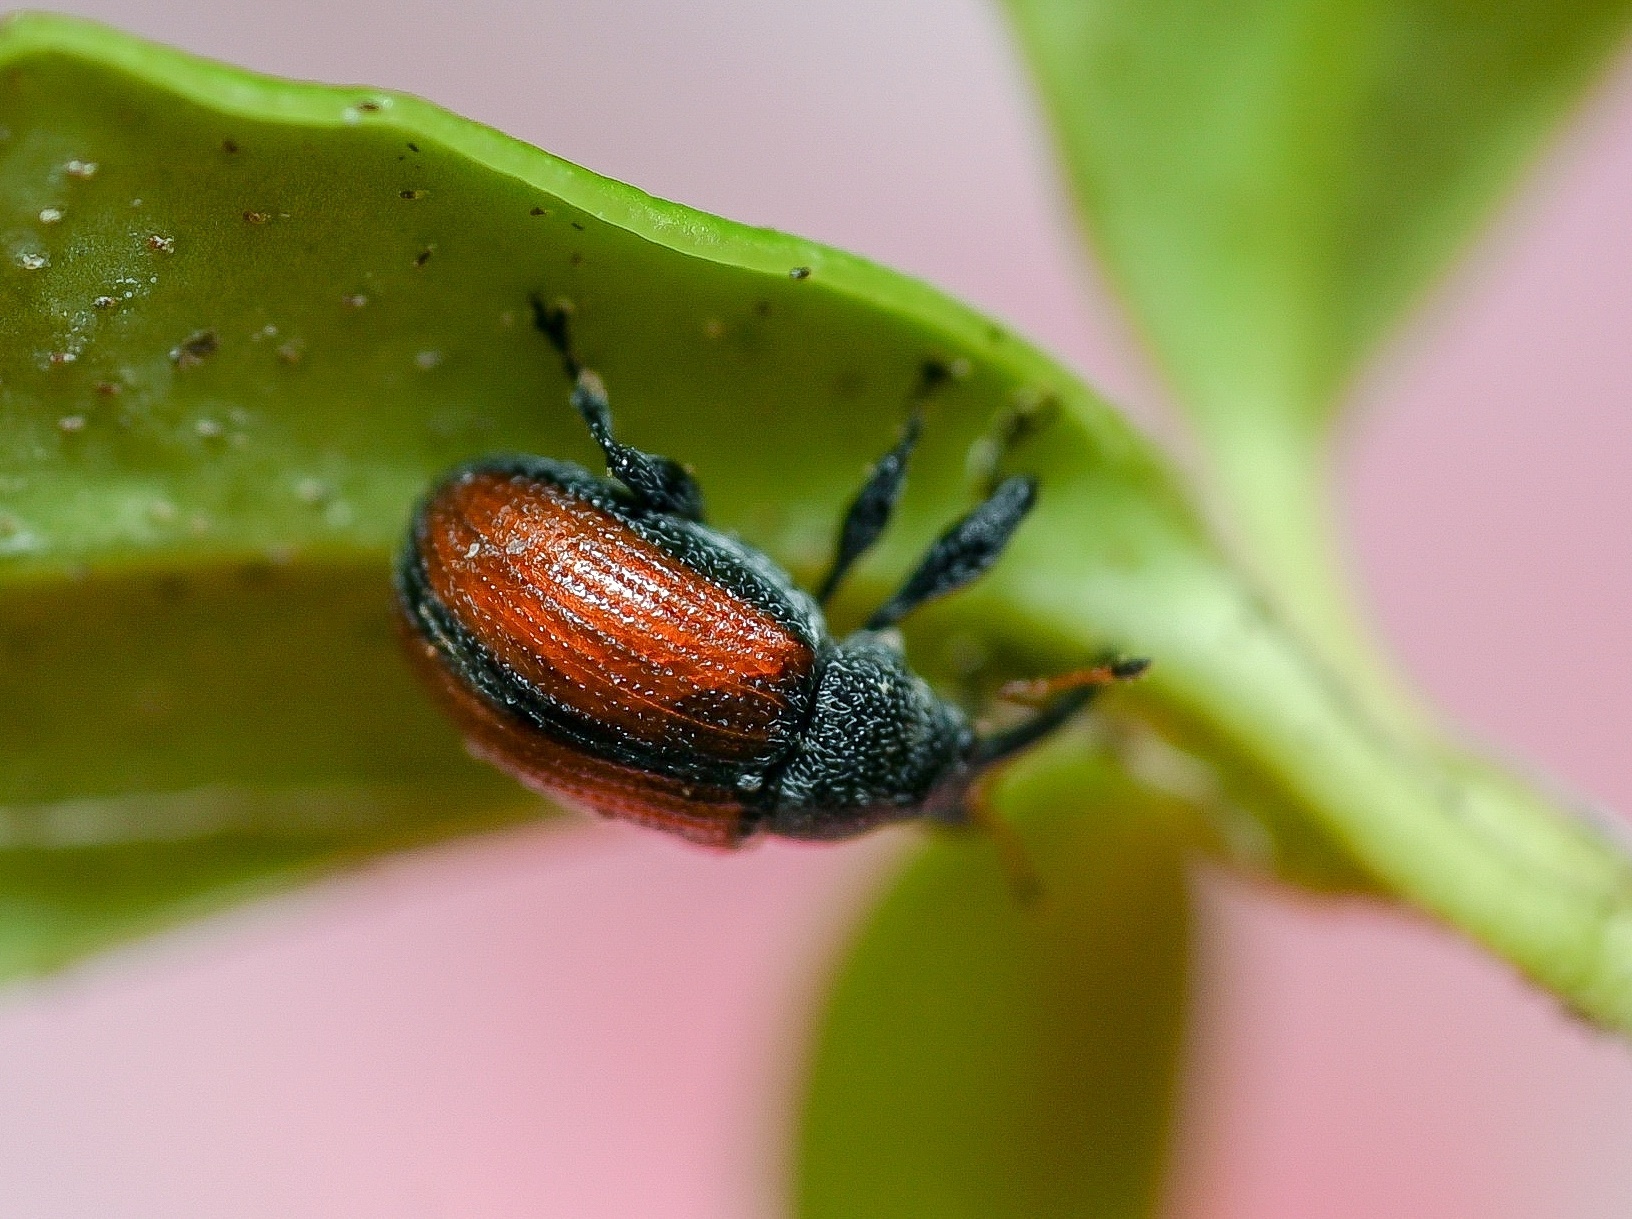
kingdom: Animalia
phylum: Arthropoda
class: Insecta
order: Coleoptera
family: Curculionidae
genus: Anthonomus
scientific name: Anthonomus phyllocola
